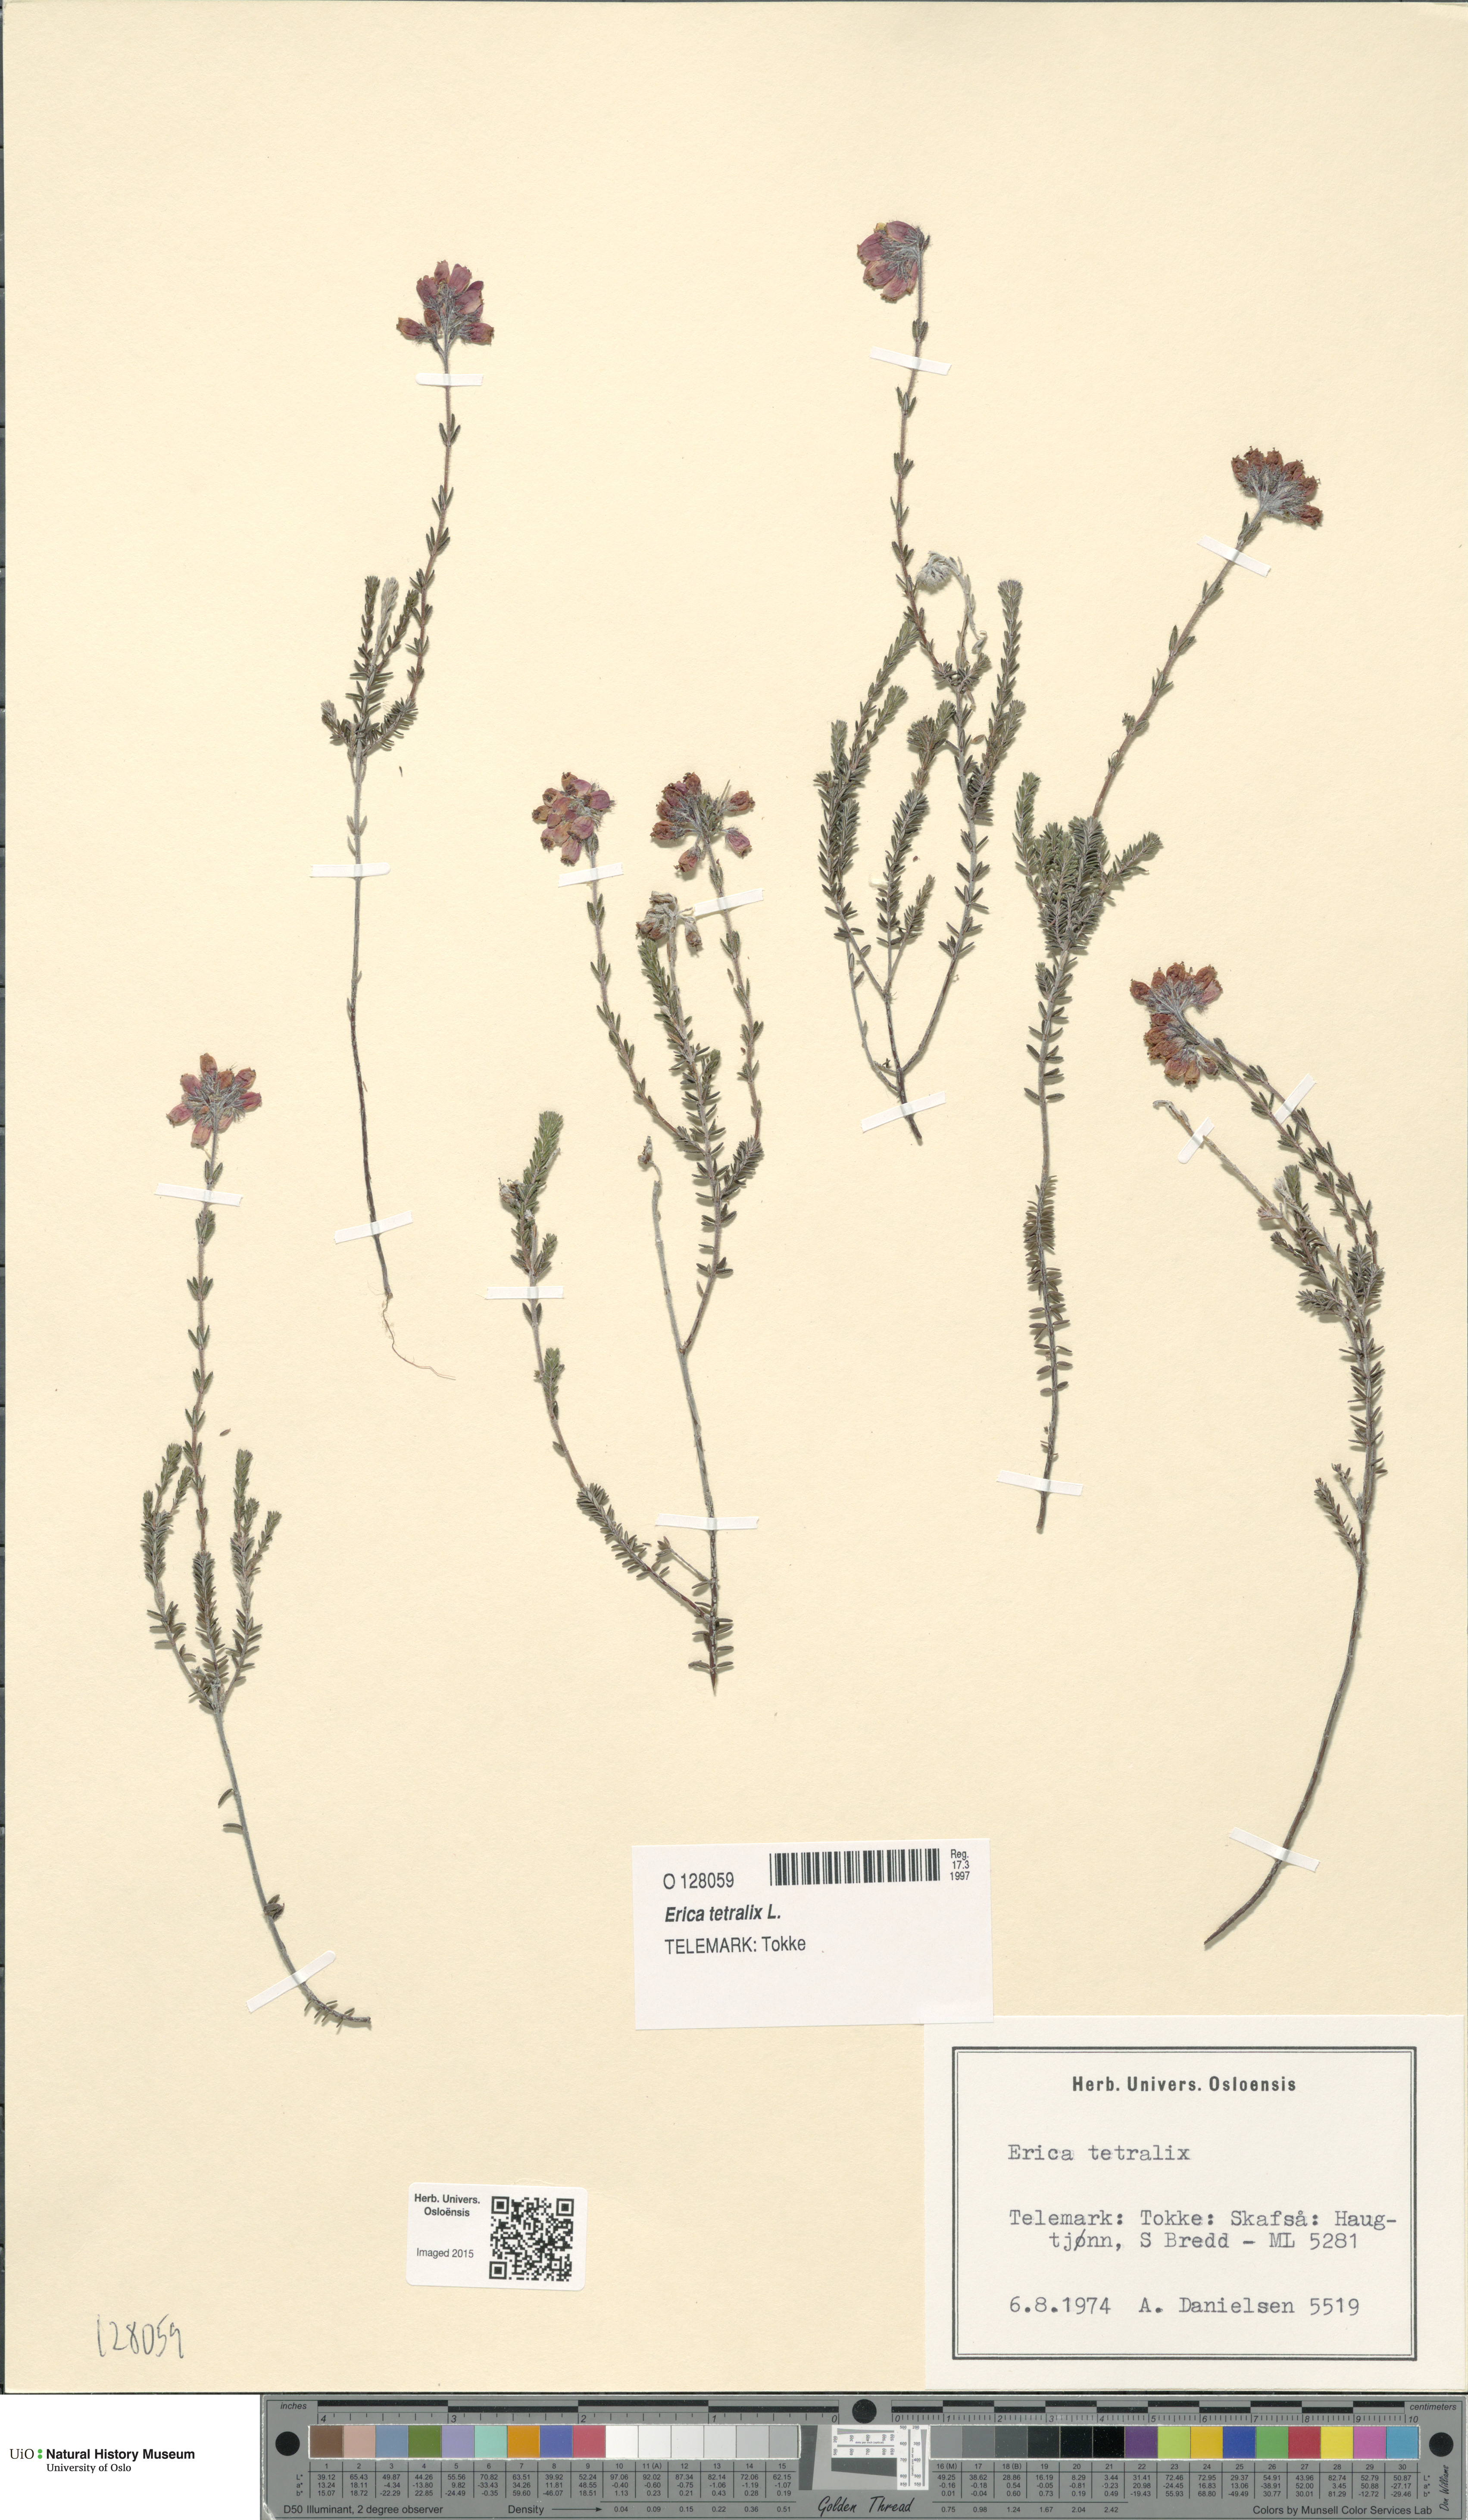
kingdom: Plantae
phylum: Tracheophyta
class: Magnoliopsida
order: Ericales
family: Ericaceae
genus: Erica
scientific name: Erica tetralix
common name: Cross-leaved heath
